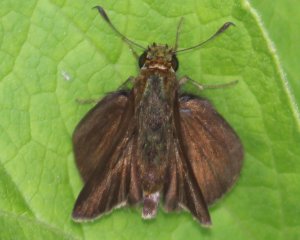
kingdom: Animalia
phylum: Arthropoda
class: Insecta
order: Lepidoptera
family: Hesperiidae
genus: Euphyes
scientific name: Euphyes vestris
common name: Dun Skipper
